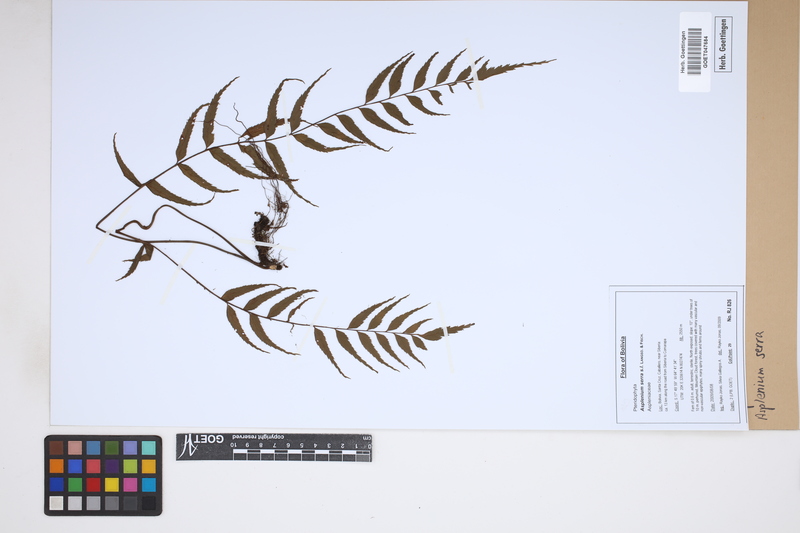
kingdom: Plantae
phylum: Tracheophyta
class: Polypodiopsida
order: Polypodiales
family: Aspleniaceae
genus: Asplenium
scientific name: Asplenium serra
